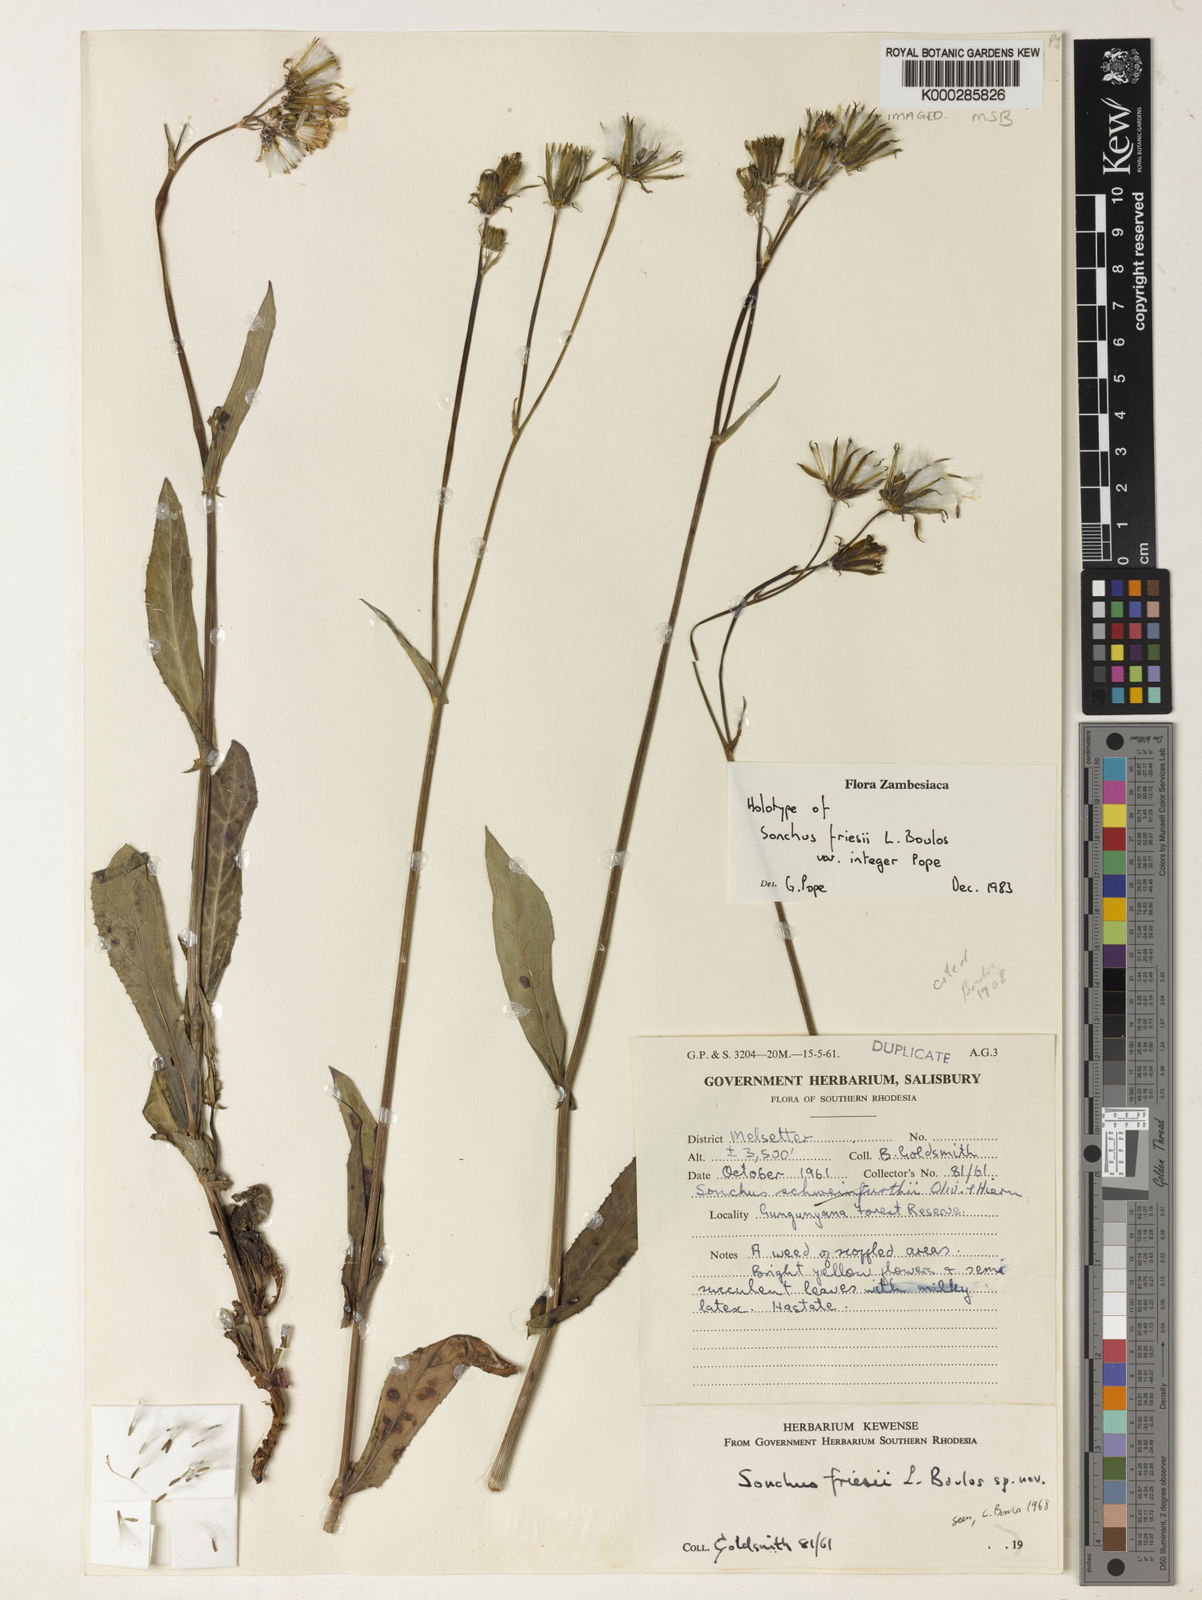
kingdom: Plantae
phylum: Tracheophyta
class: Magnoliopsida
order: Asterales
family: Asteraceae
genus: Sonchus
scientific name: Sonchus friesii
